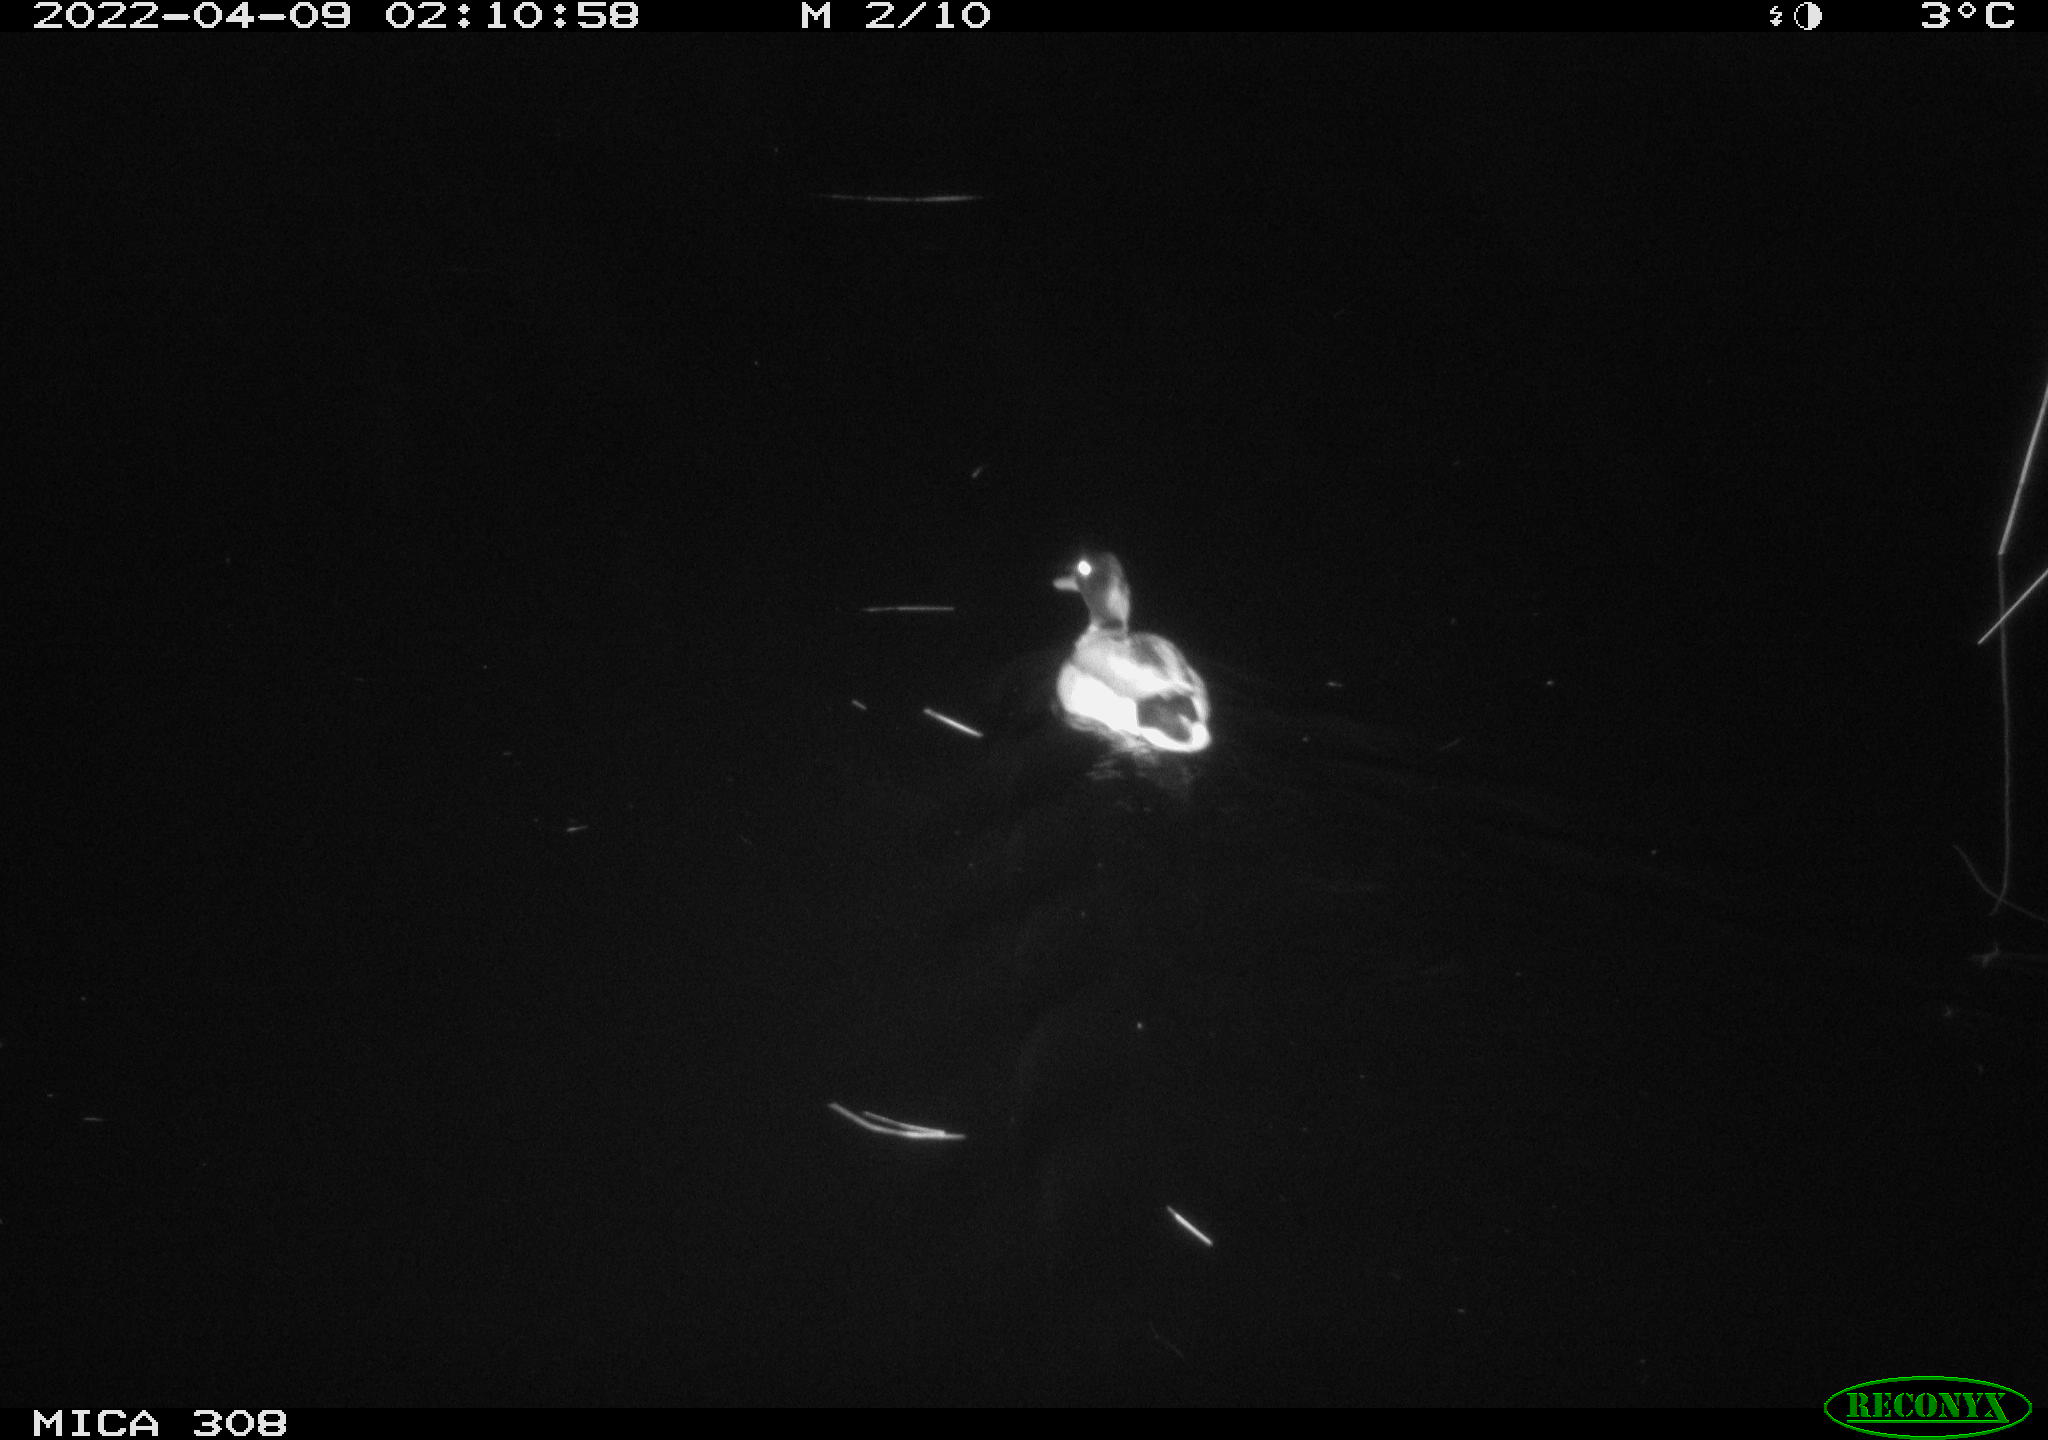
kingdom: Animalia
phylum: Chordata
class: Aves
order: Anseriformes
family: Anatidae
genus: Anas
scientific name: Anas platyrhynchos
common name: Mallard
